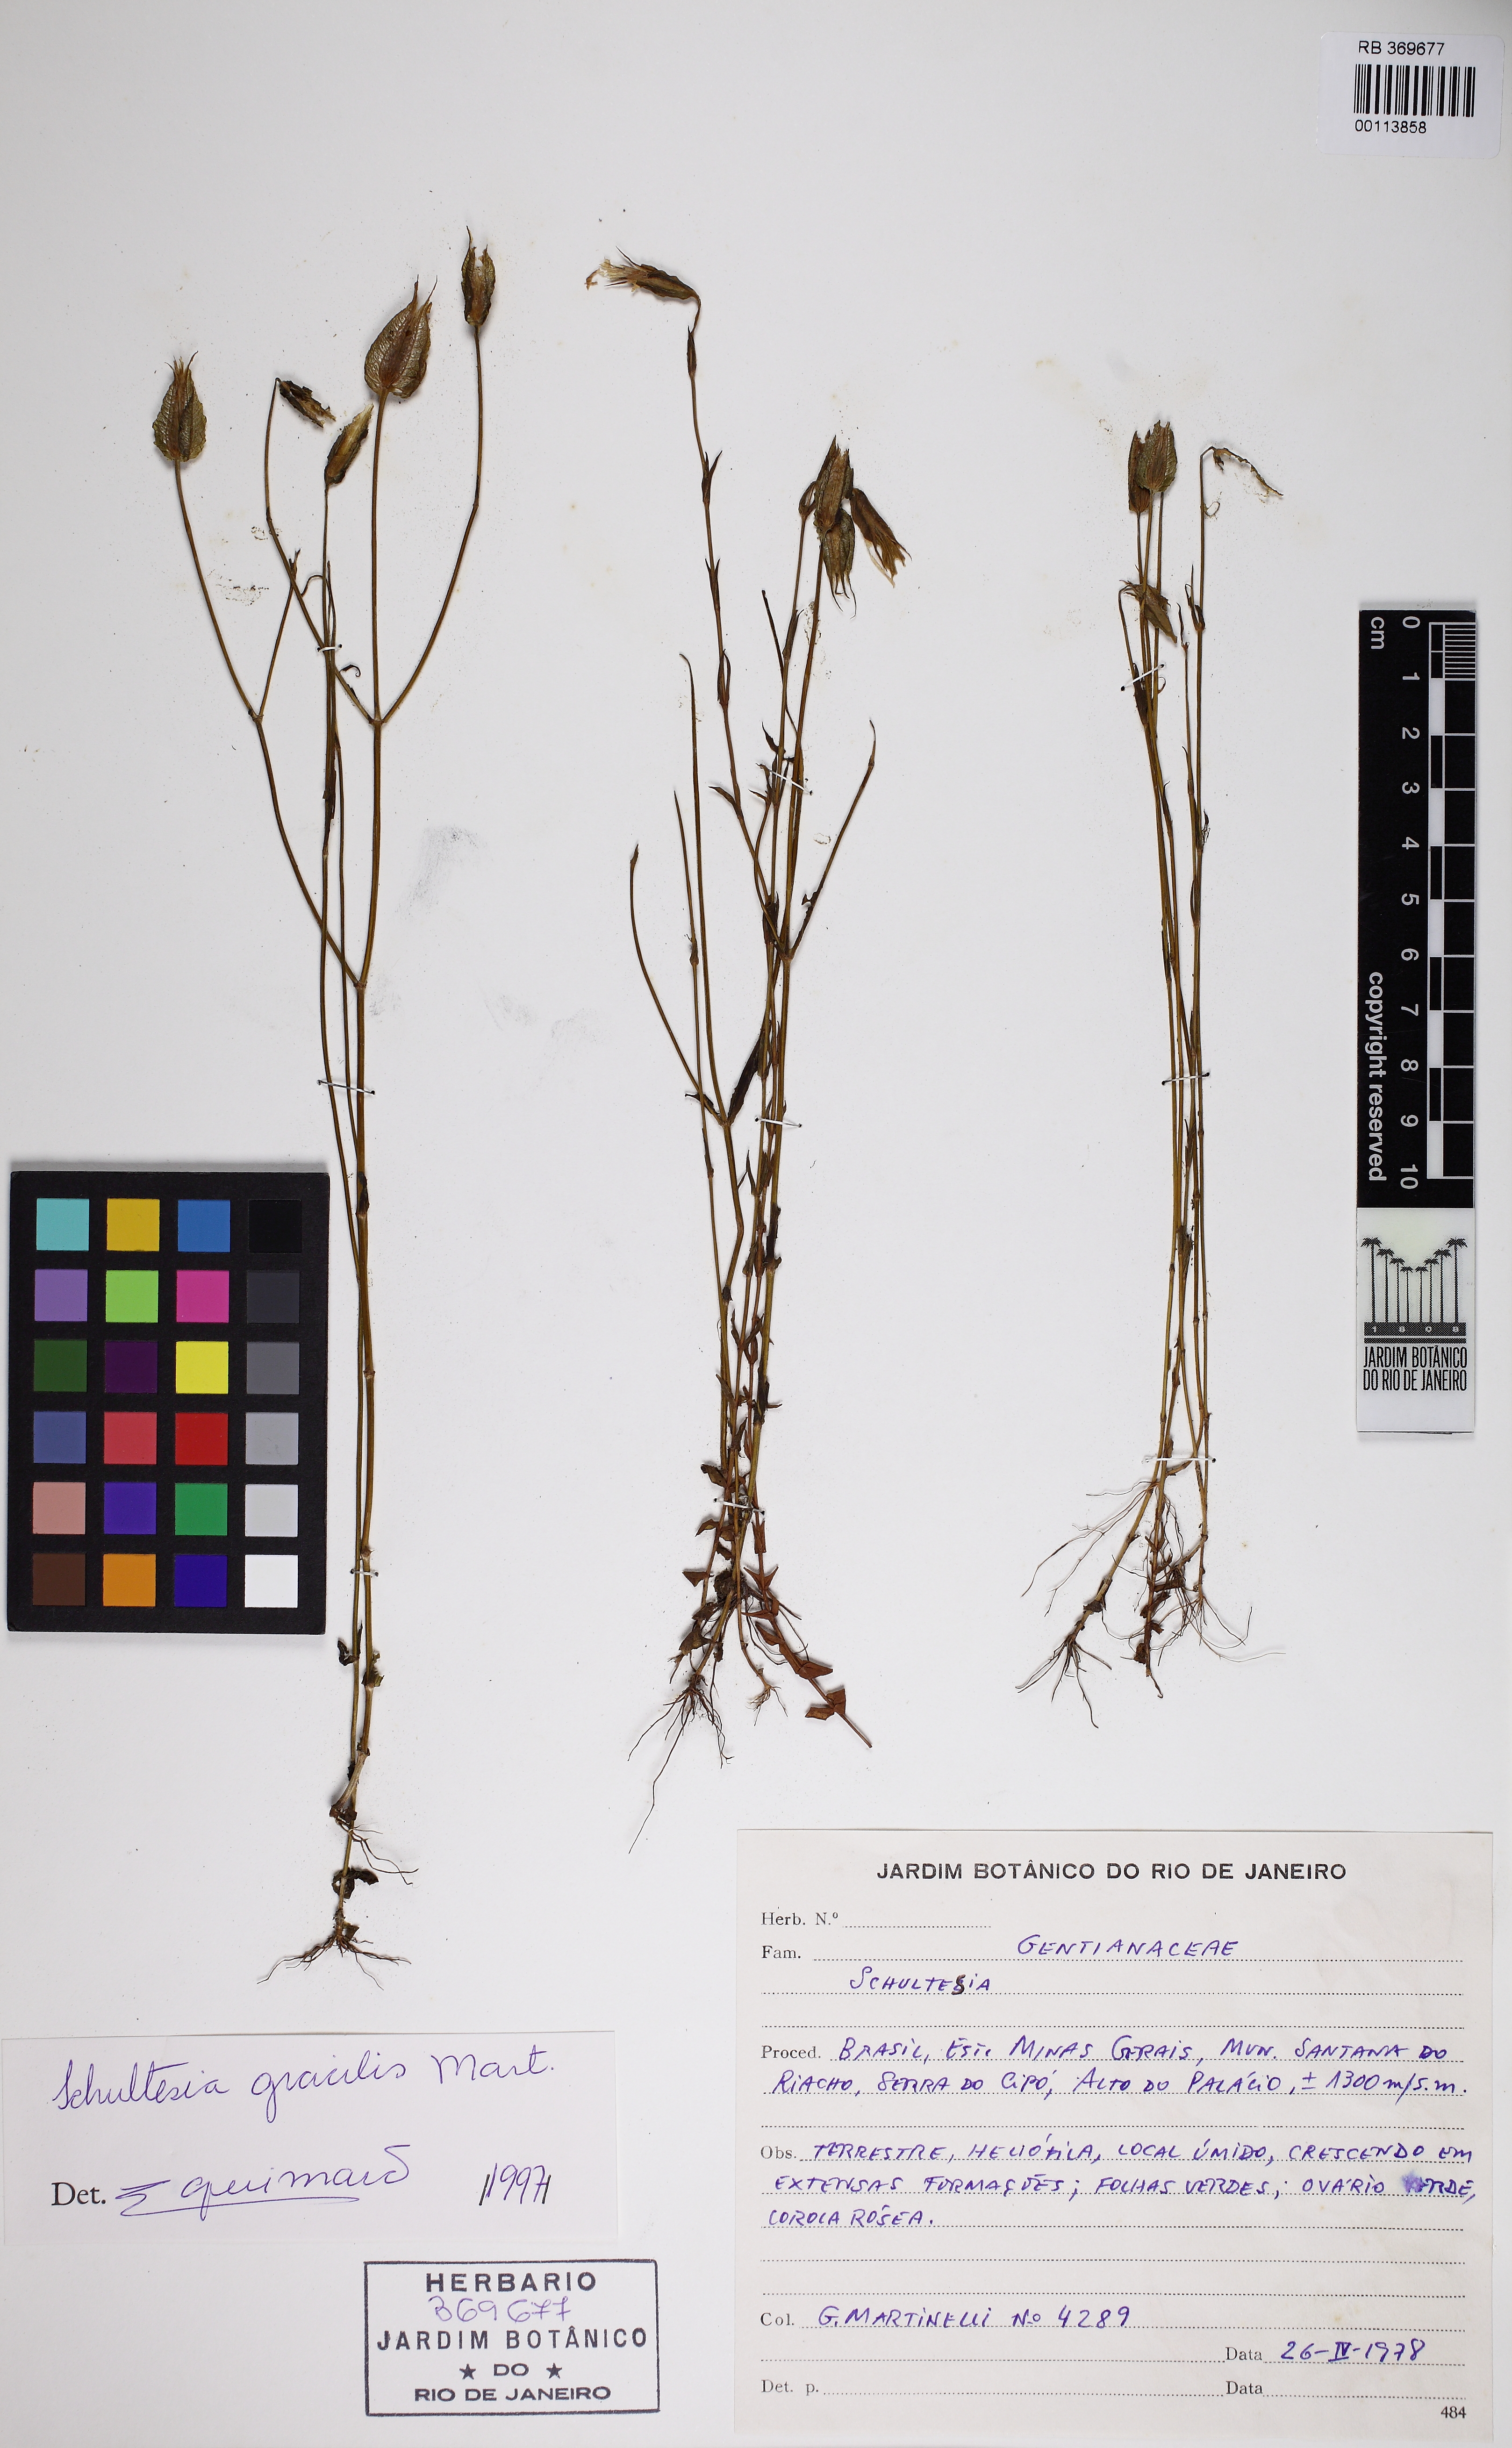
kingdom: Plantae
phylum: Tracheophyta
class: Magnoliopsida
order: Gentianales
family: Gentianaceae
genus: Schultesia
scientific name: Schultesia gracilis
